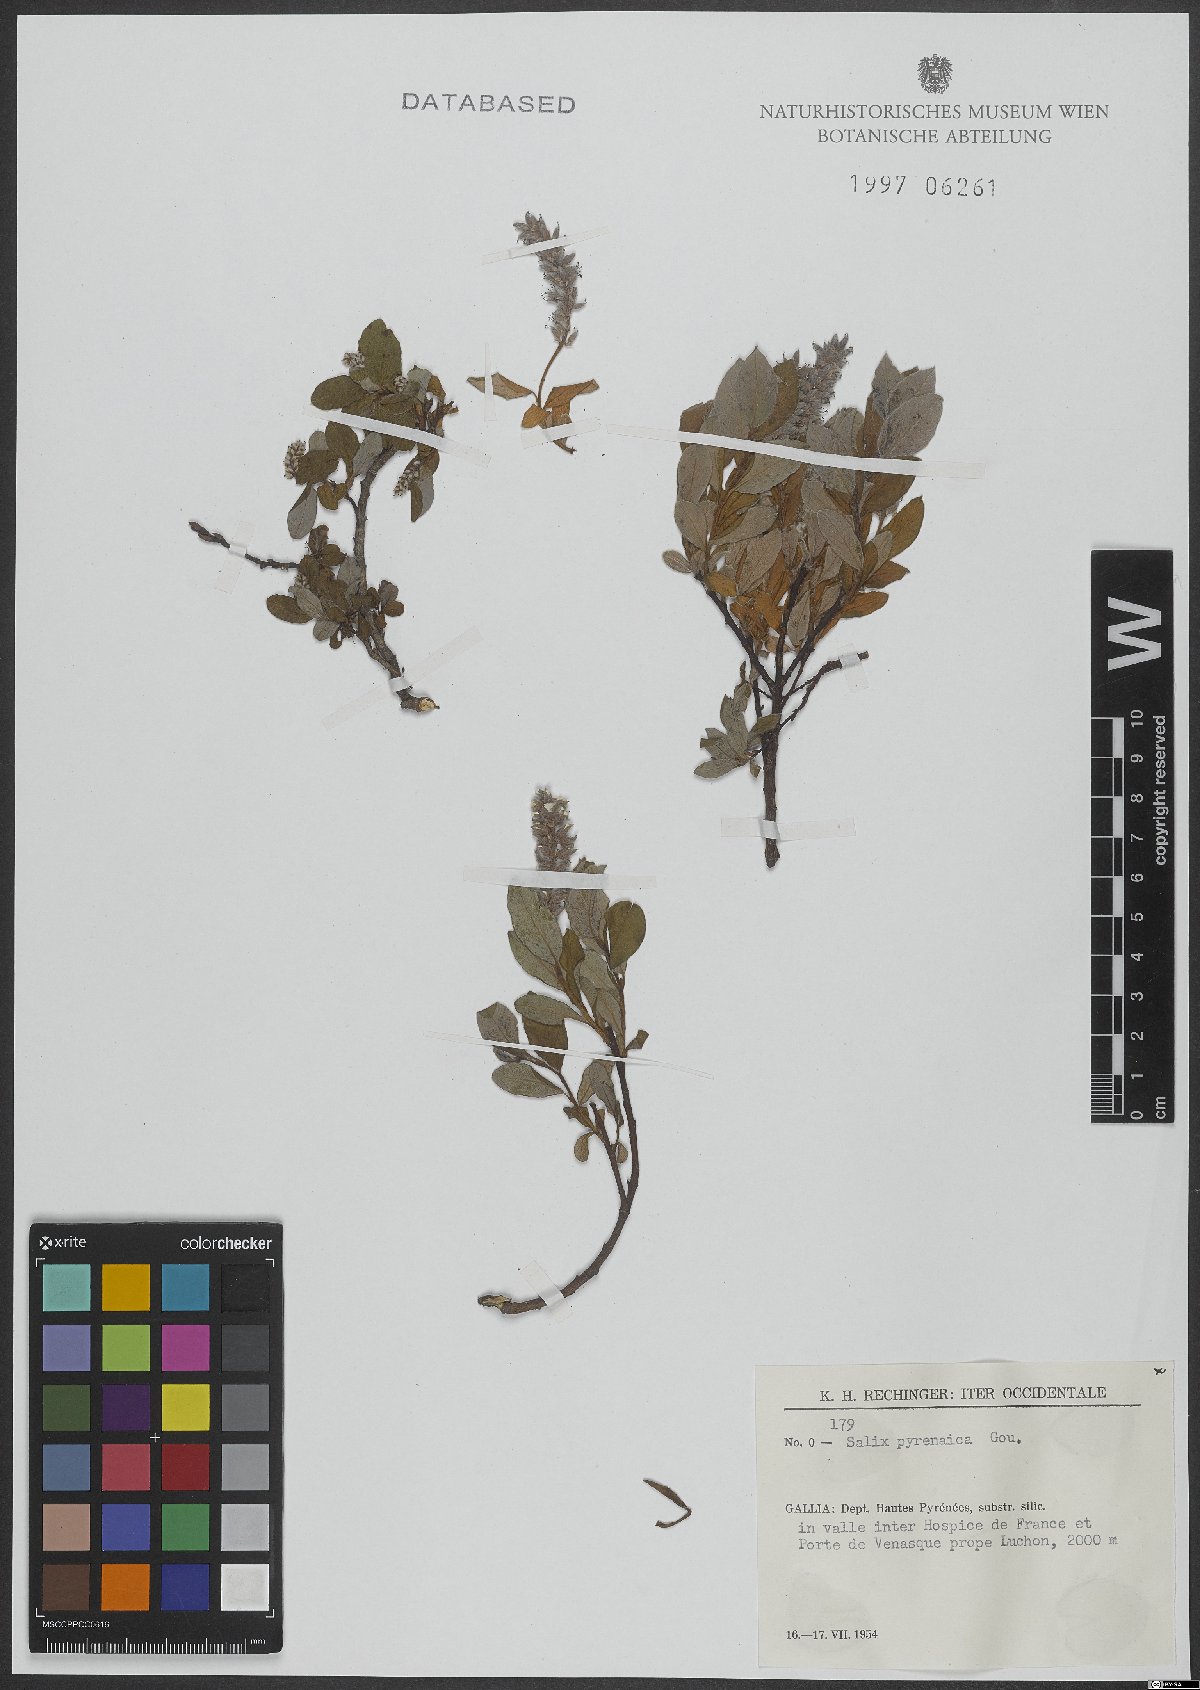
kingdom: Plantae
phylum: Tracheophyta
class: Magnoliopsida
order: Malpighiales
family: Salicaceae
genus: Salix
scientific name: Salix pyrenaica
